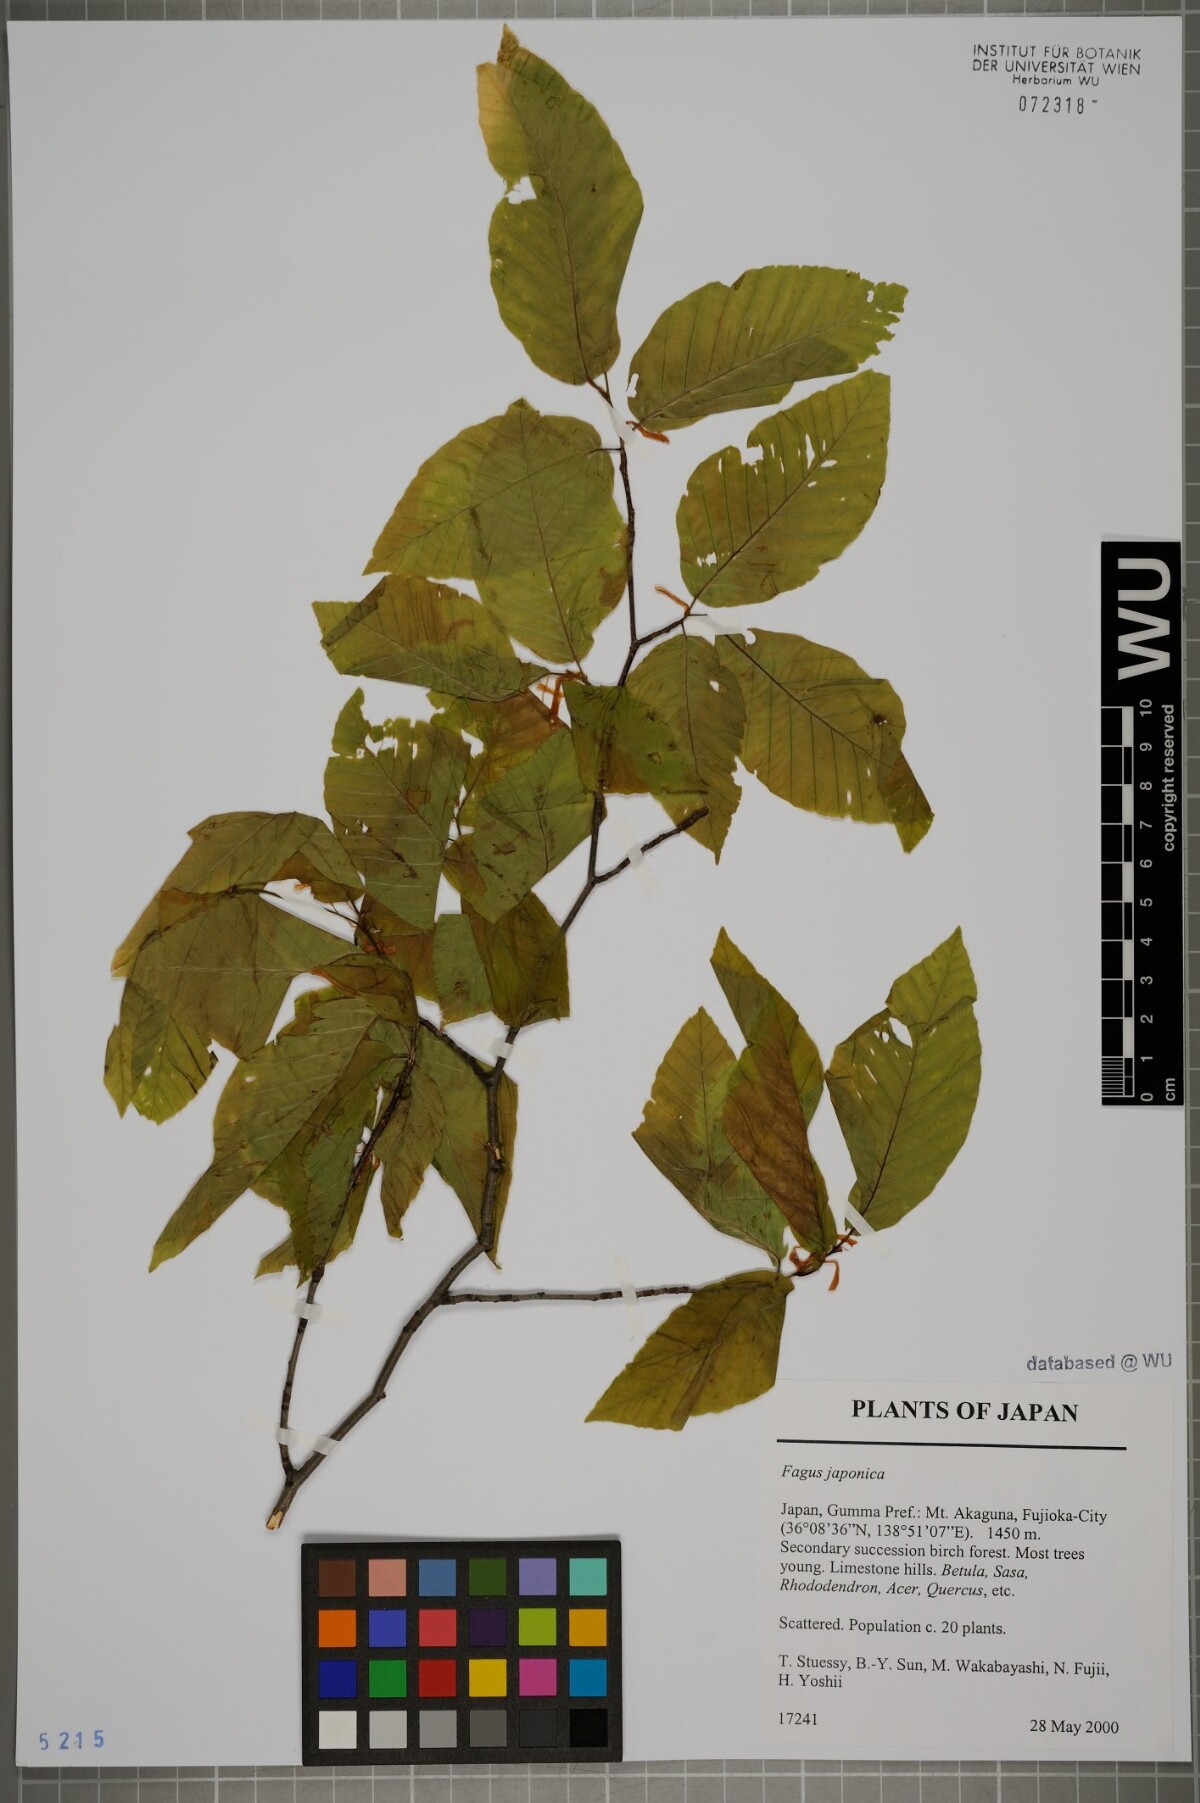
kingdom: Plantae
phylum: Tracheophyta
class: Magnoliopsida
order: Fagales
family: Fagaceae
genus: Fagus
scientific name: Fagus japonica
